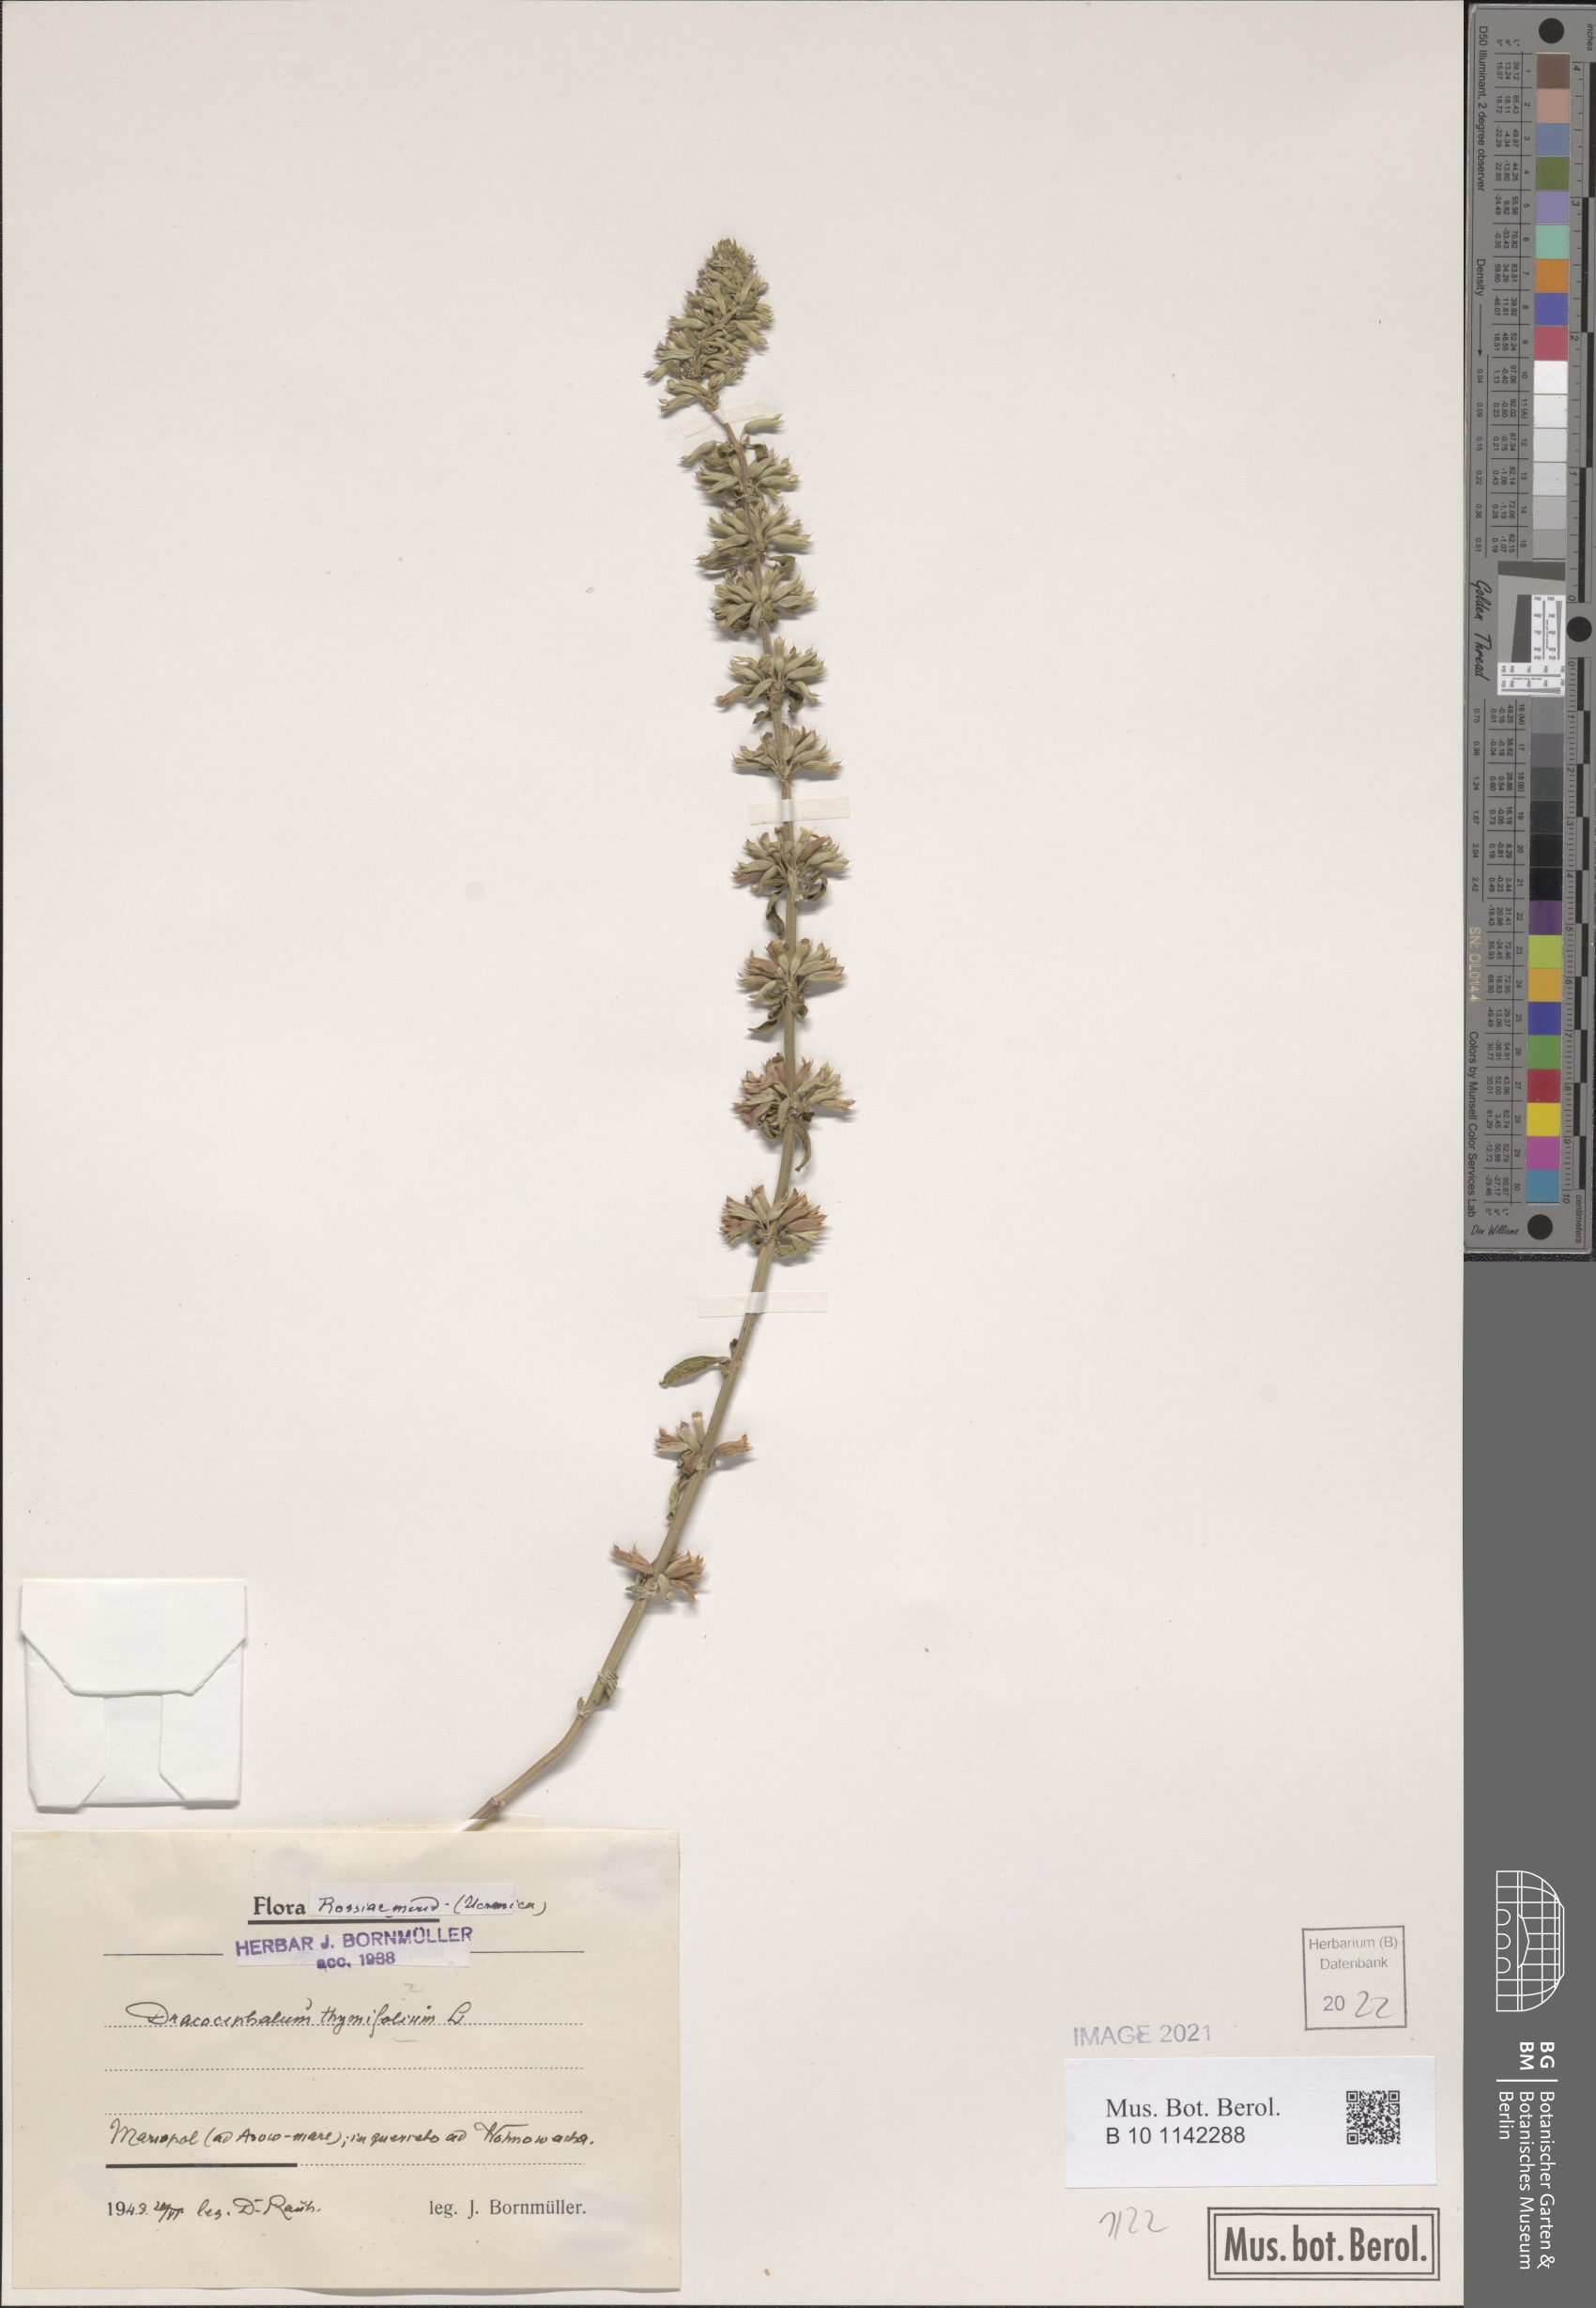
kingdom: Plantae
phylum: Tracheophyta
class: Magnoliopsida
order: Lamiales
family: Lamiaceae
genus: Dracocephalum
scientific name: Dracocephalum thymiflorum
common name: Thymeleaf dragonhead
